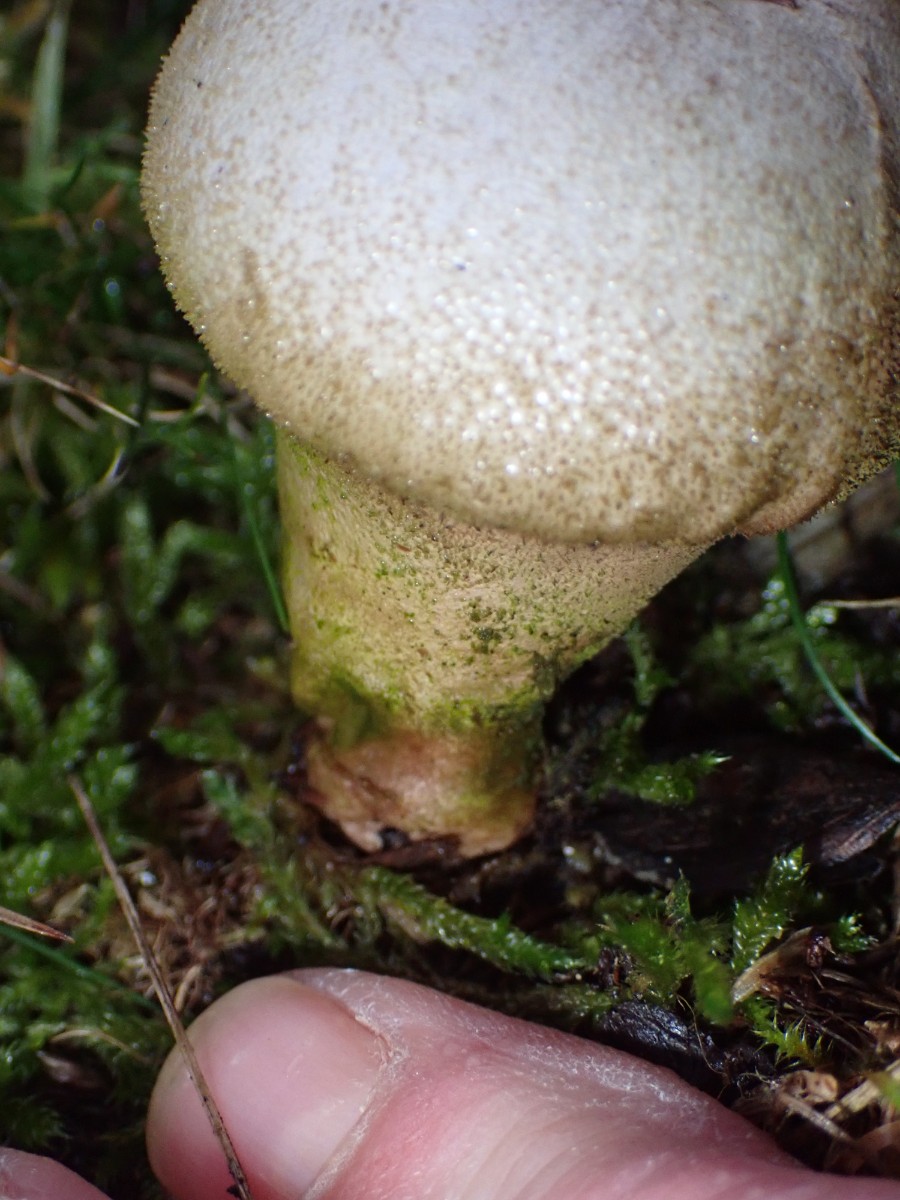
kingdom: Fungi
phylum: Basidiomycota
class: Agaricomycetes
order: Agaricales
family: Lycoperdaceae
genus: Lycoperdon
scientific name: Lycoperdon perlatum
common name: krystal-støvbold
